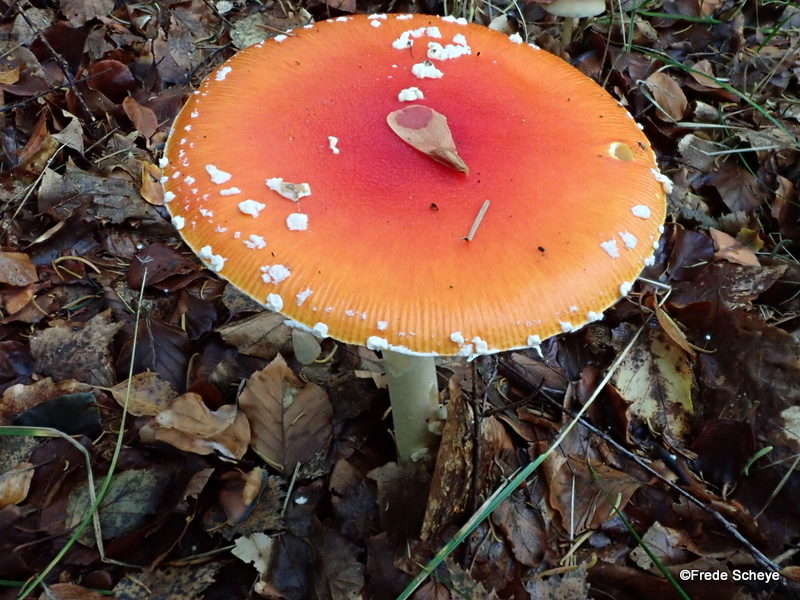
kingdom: Fungi
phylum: Basidiomycota
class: Agaricomycetes
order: Agaricales
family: Amanitaceae
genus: Amanita
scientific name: Amanita muscaria
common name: rød fluesvamp
